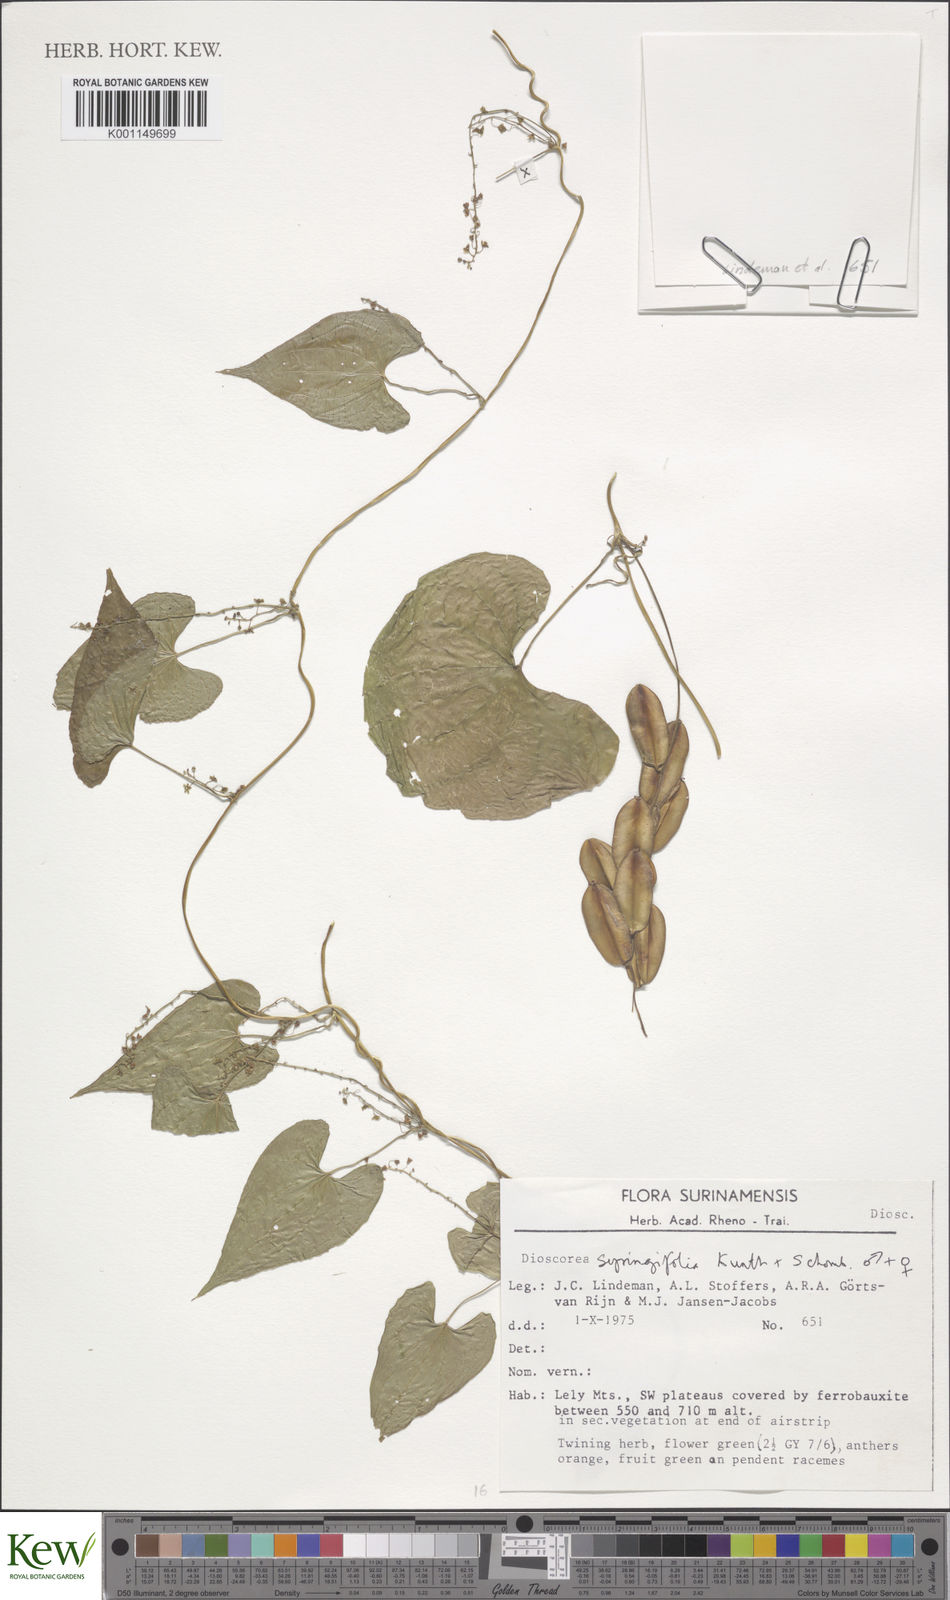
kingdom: Plantae
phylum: Tracheophyta
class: Liliopsida
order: Dioscoreales
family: Dioscoreaceae
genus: Dioscorea
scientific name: Dioscorea syringifolia
